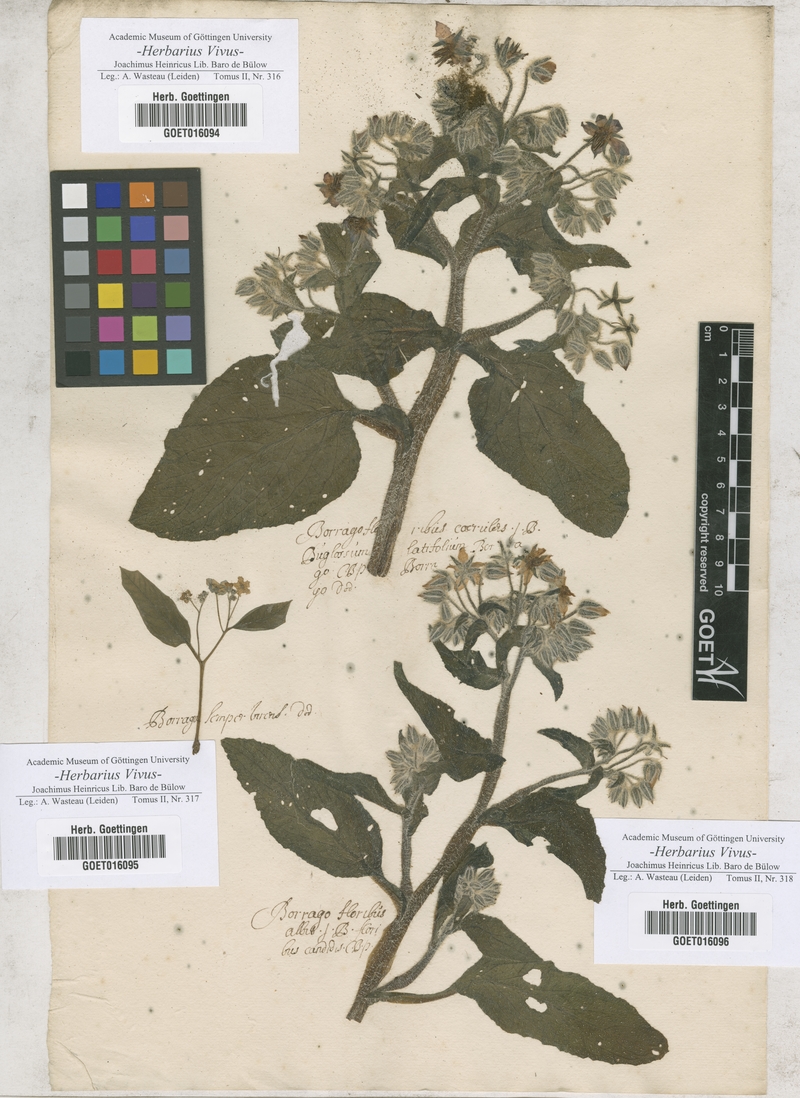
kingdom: Plantae
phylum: Tracheophyta
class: Magnoliopsida
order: Boraginales
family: Boraginaceae
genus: Borago
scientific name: Borago officinalis
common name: Borage
